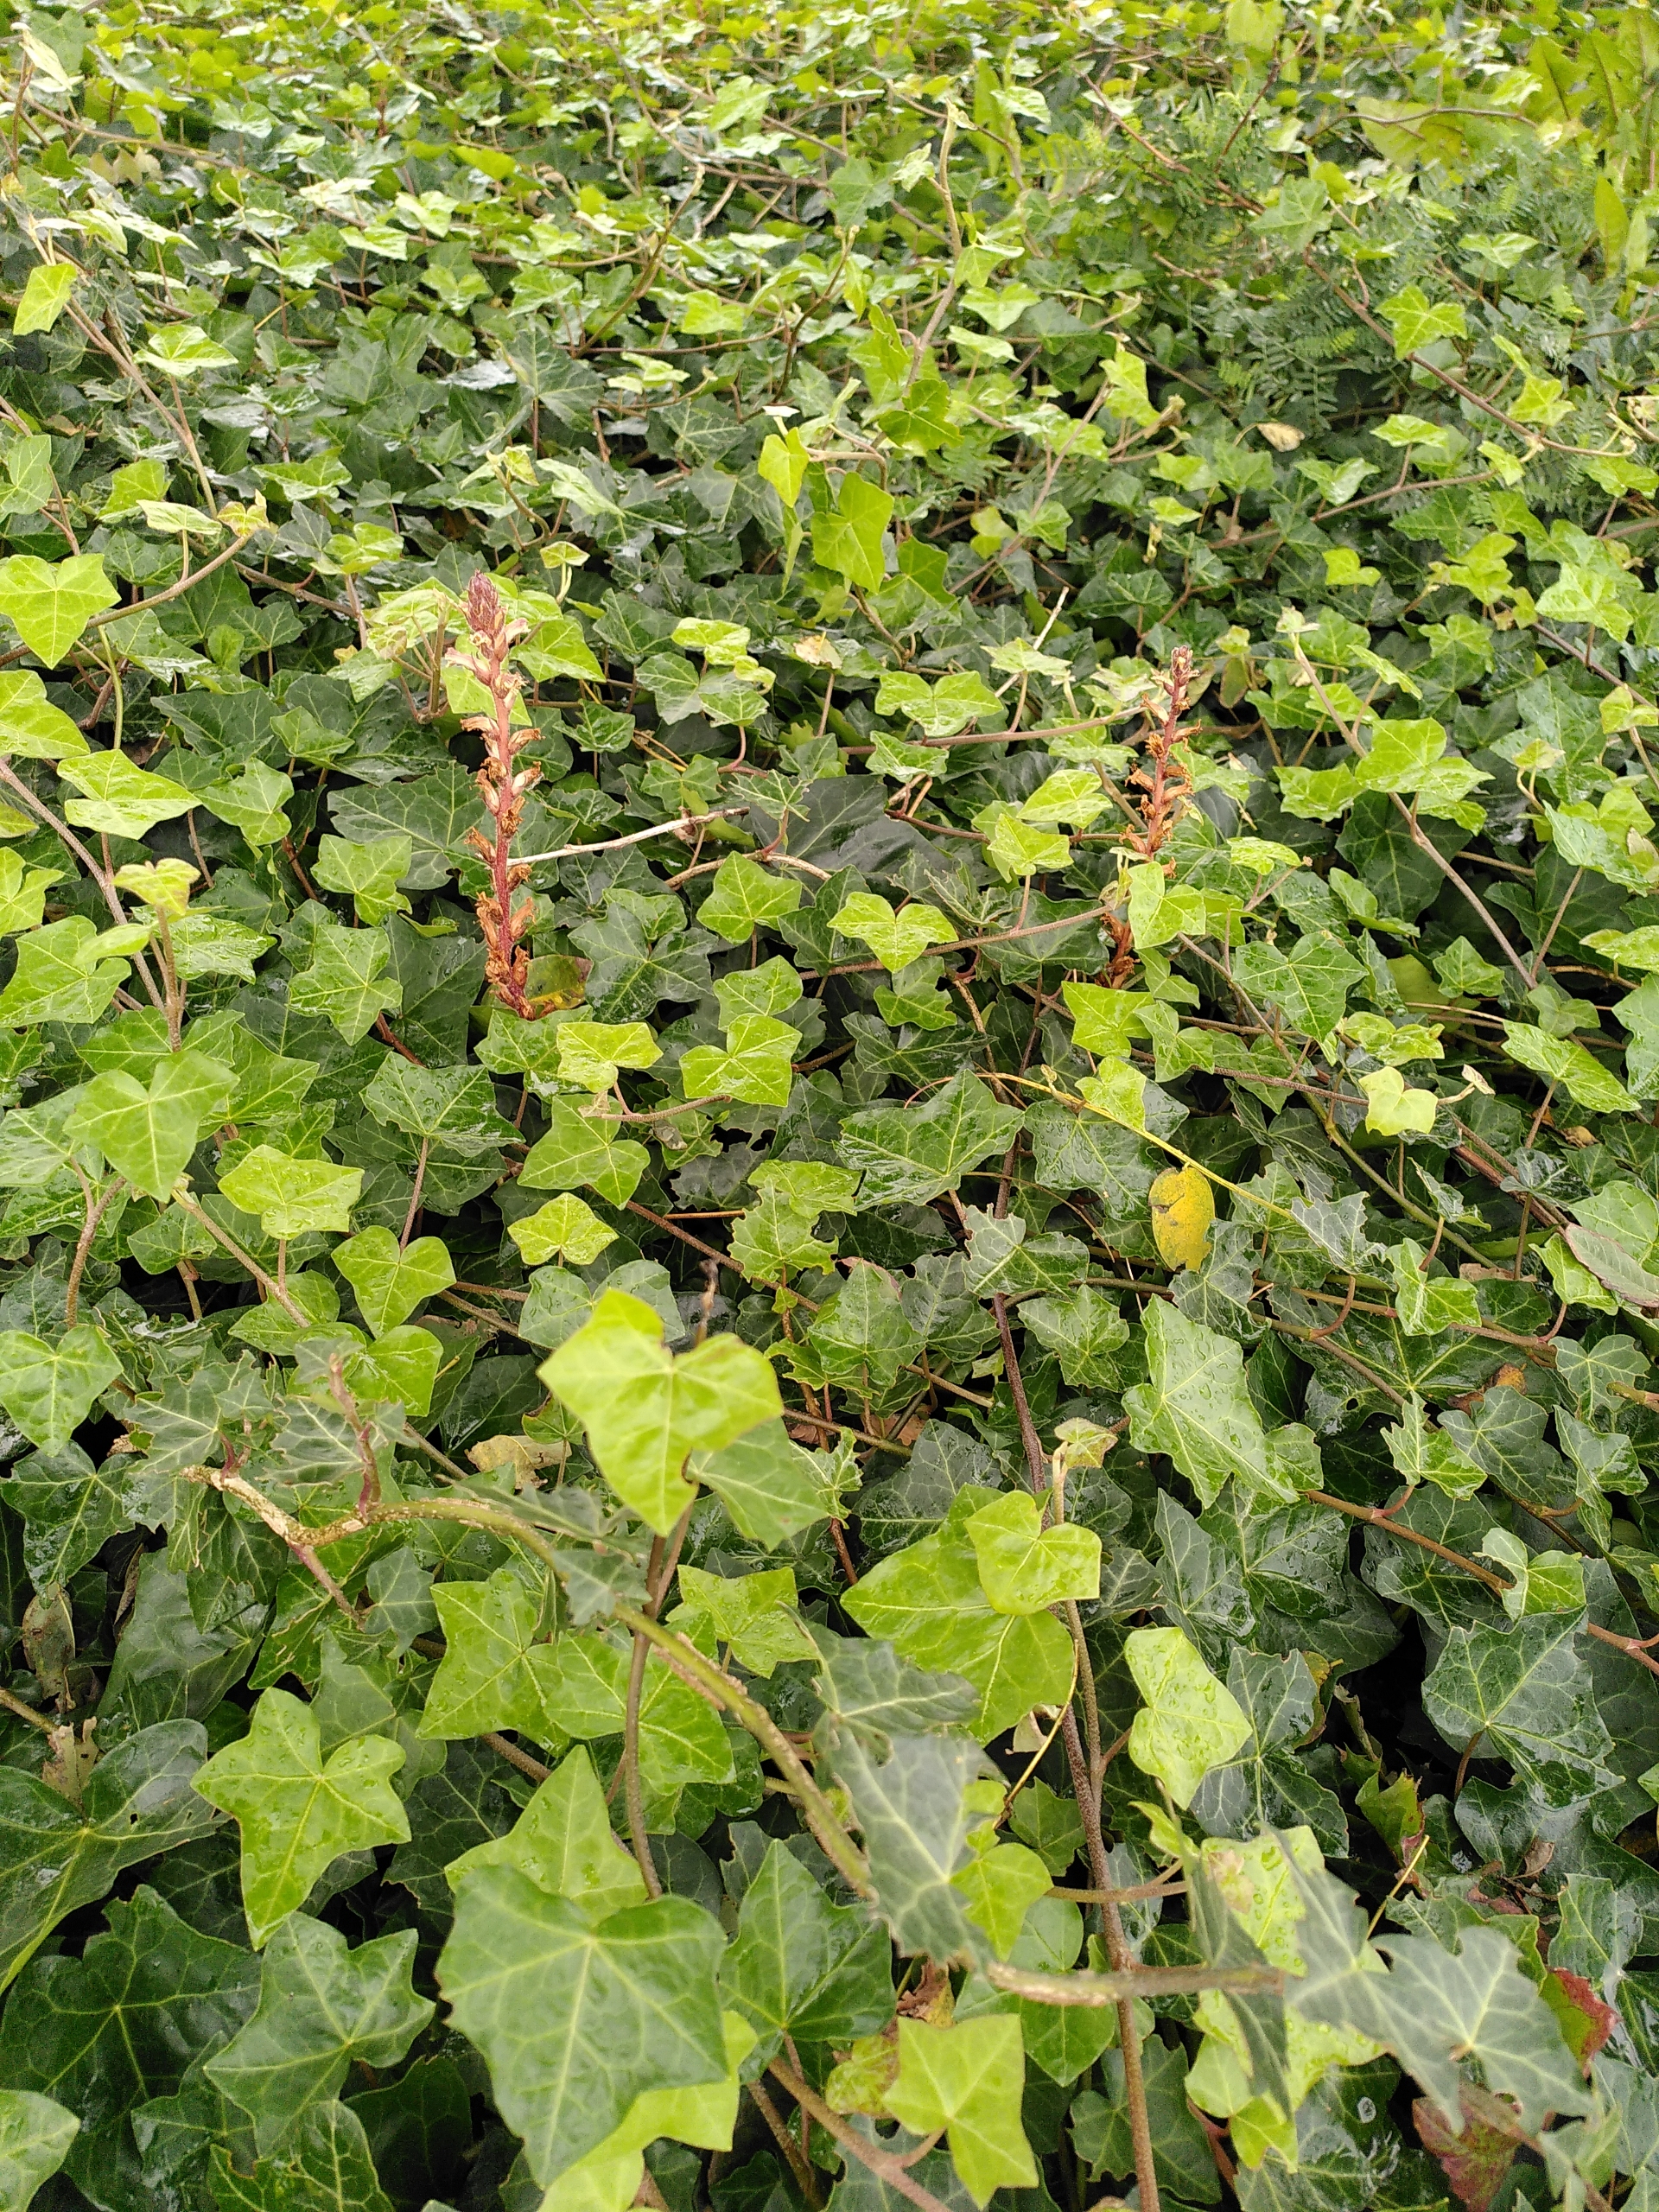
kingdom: Plantae
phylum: Tracheophyta
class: Magnoliopsida
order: Lamiales
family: Orobanchaceae
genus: Orobanche
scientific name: Orobanche hederae
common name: Vedbend-gyvelkvæler
